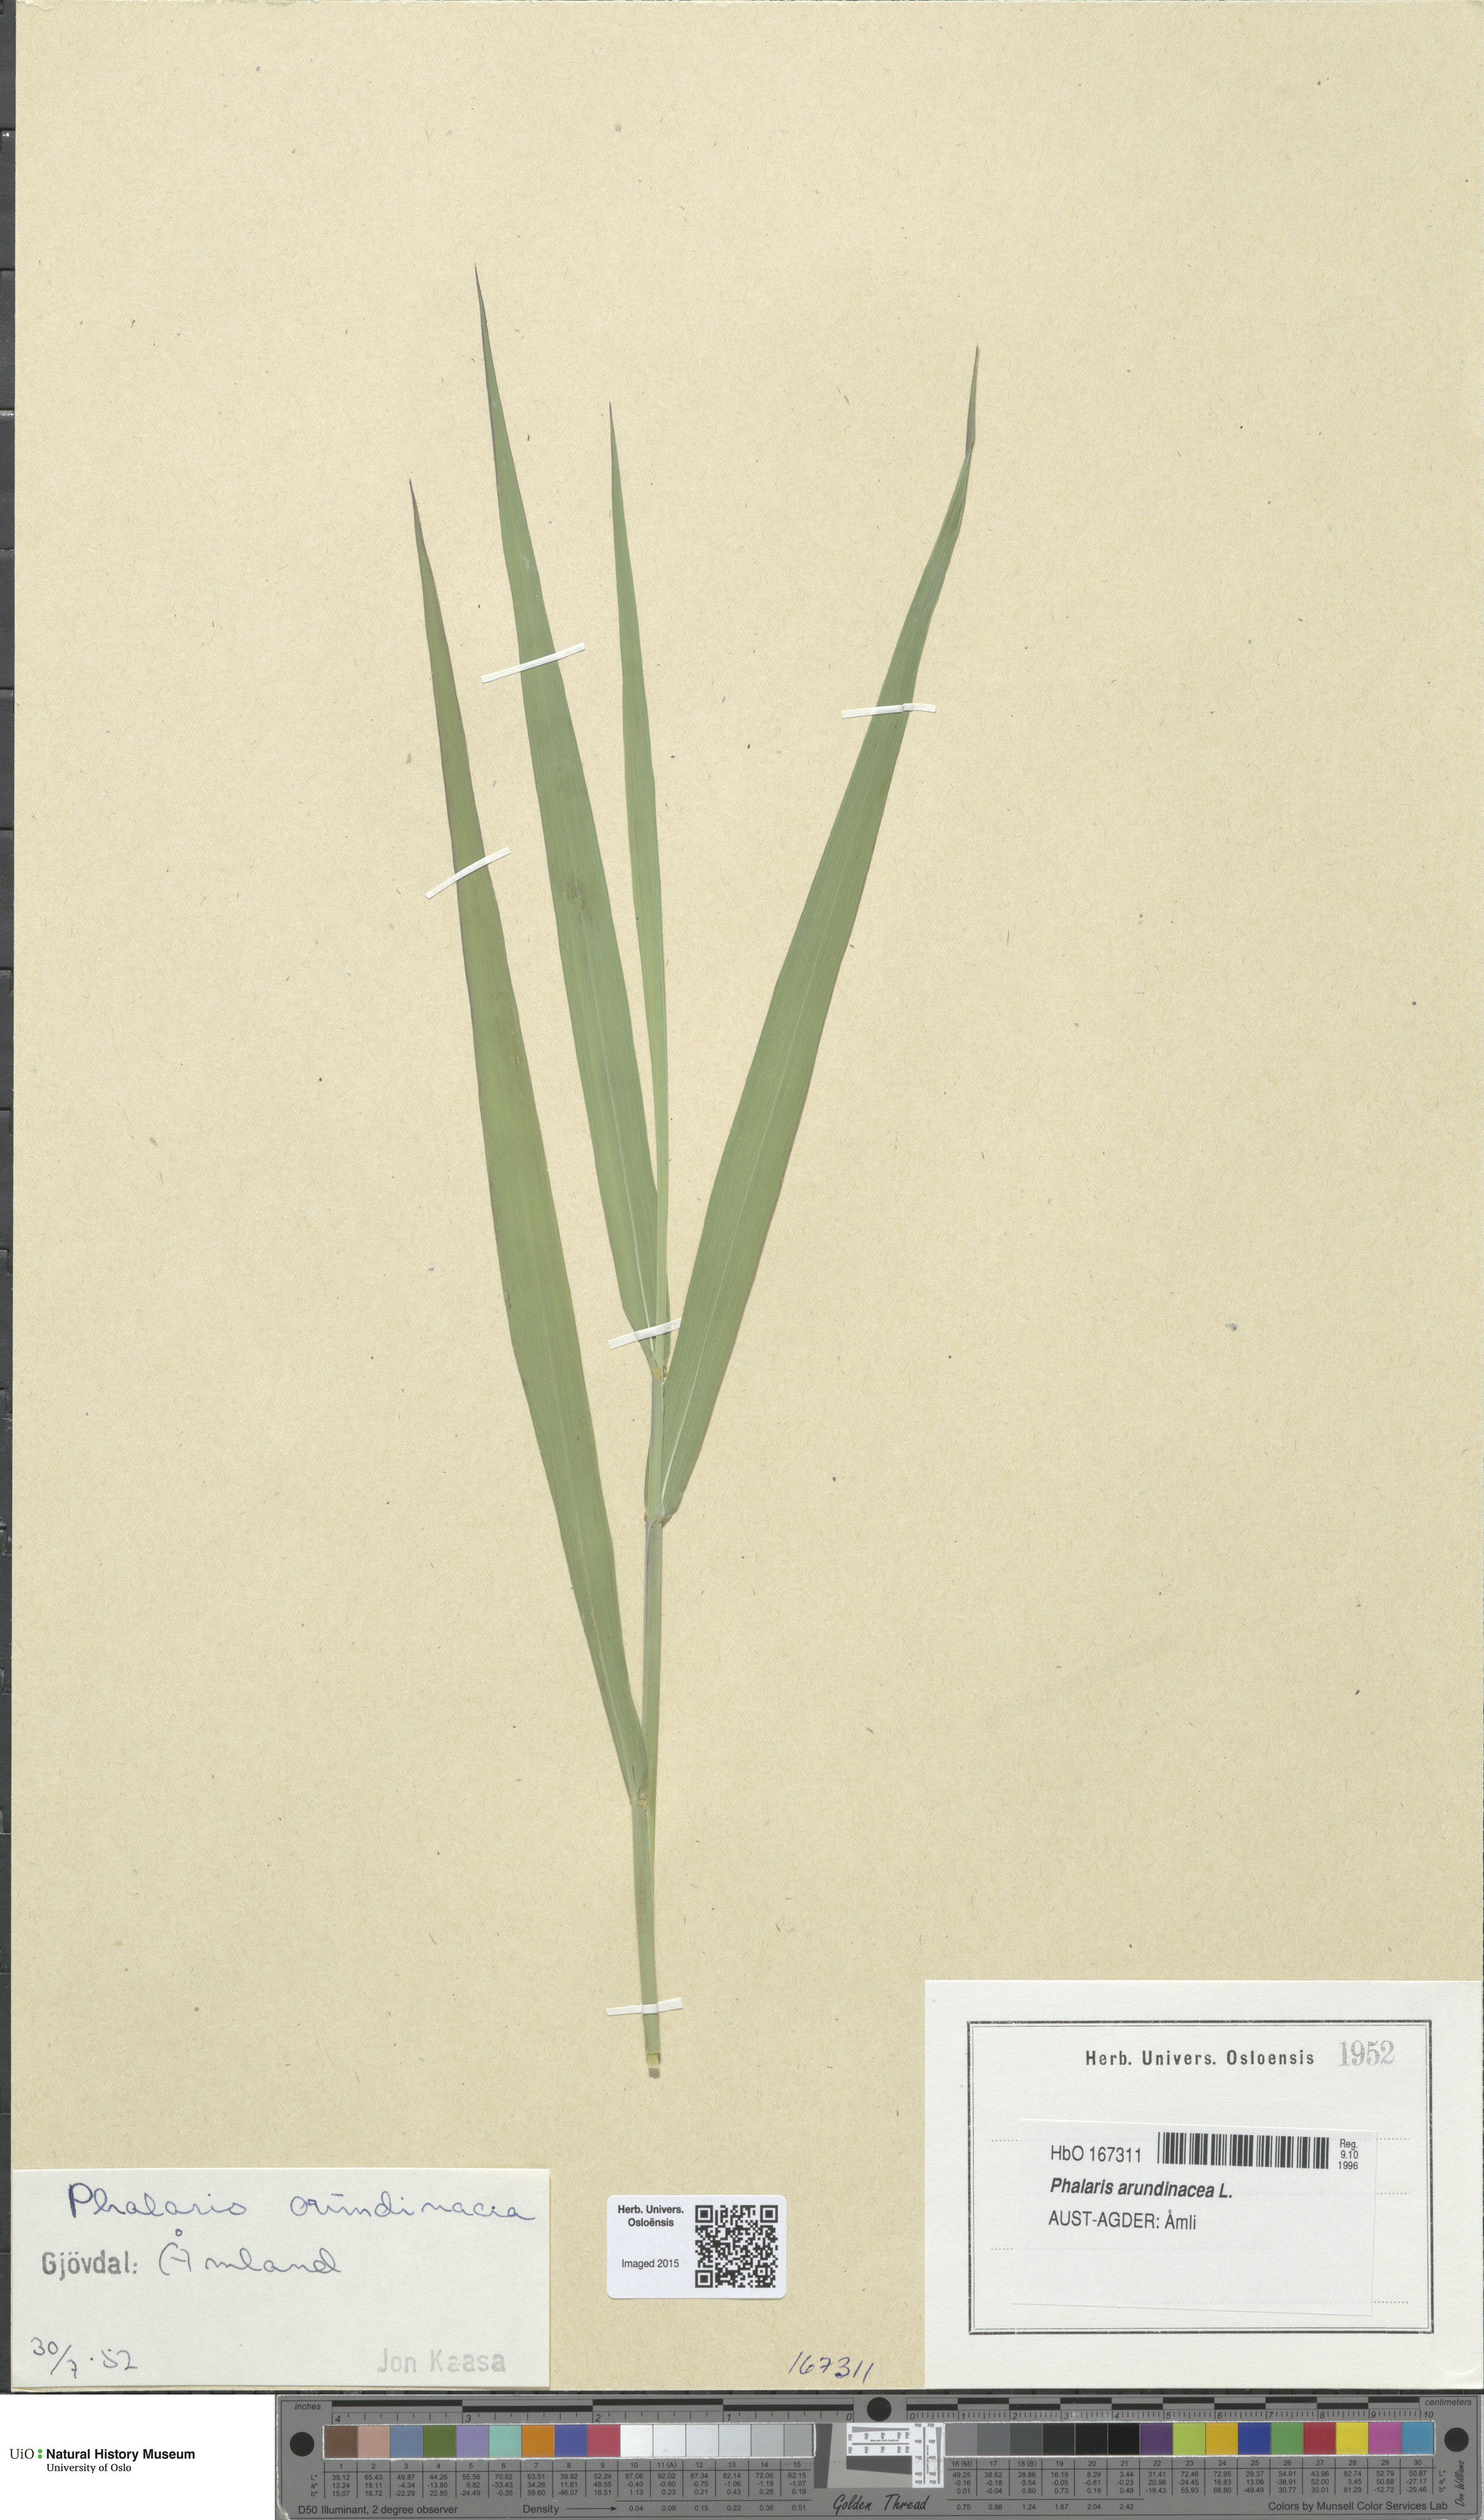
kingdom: Plantae
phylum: Tracheophyta
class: Liliopsida
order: Poales
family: Poaceae
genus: Phalaris
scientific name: Phalaris arundinacea
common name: Reed canary-grass
